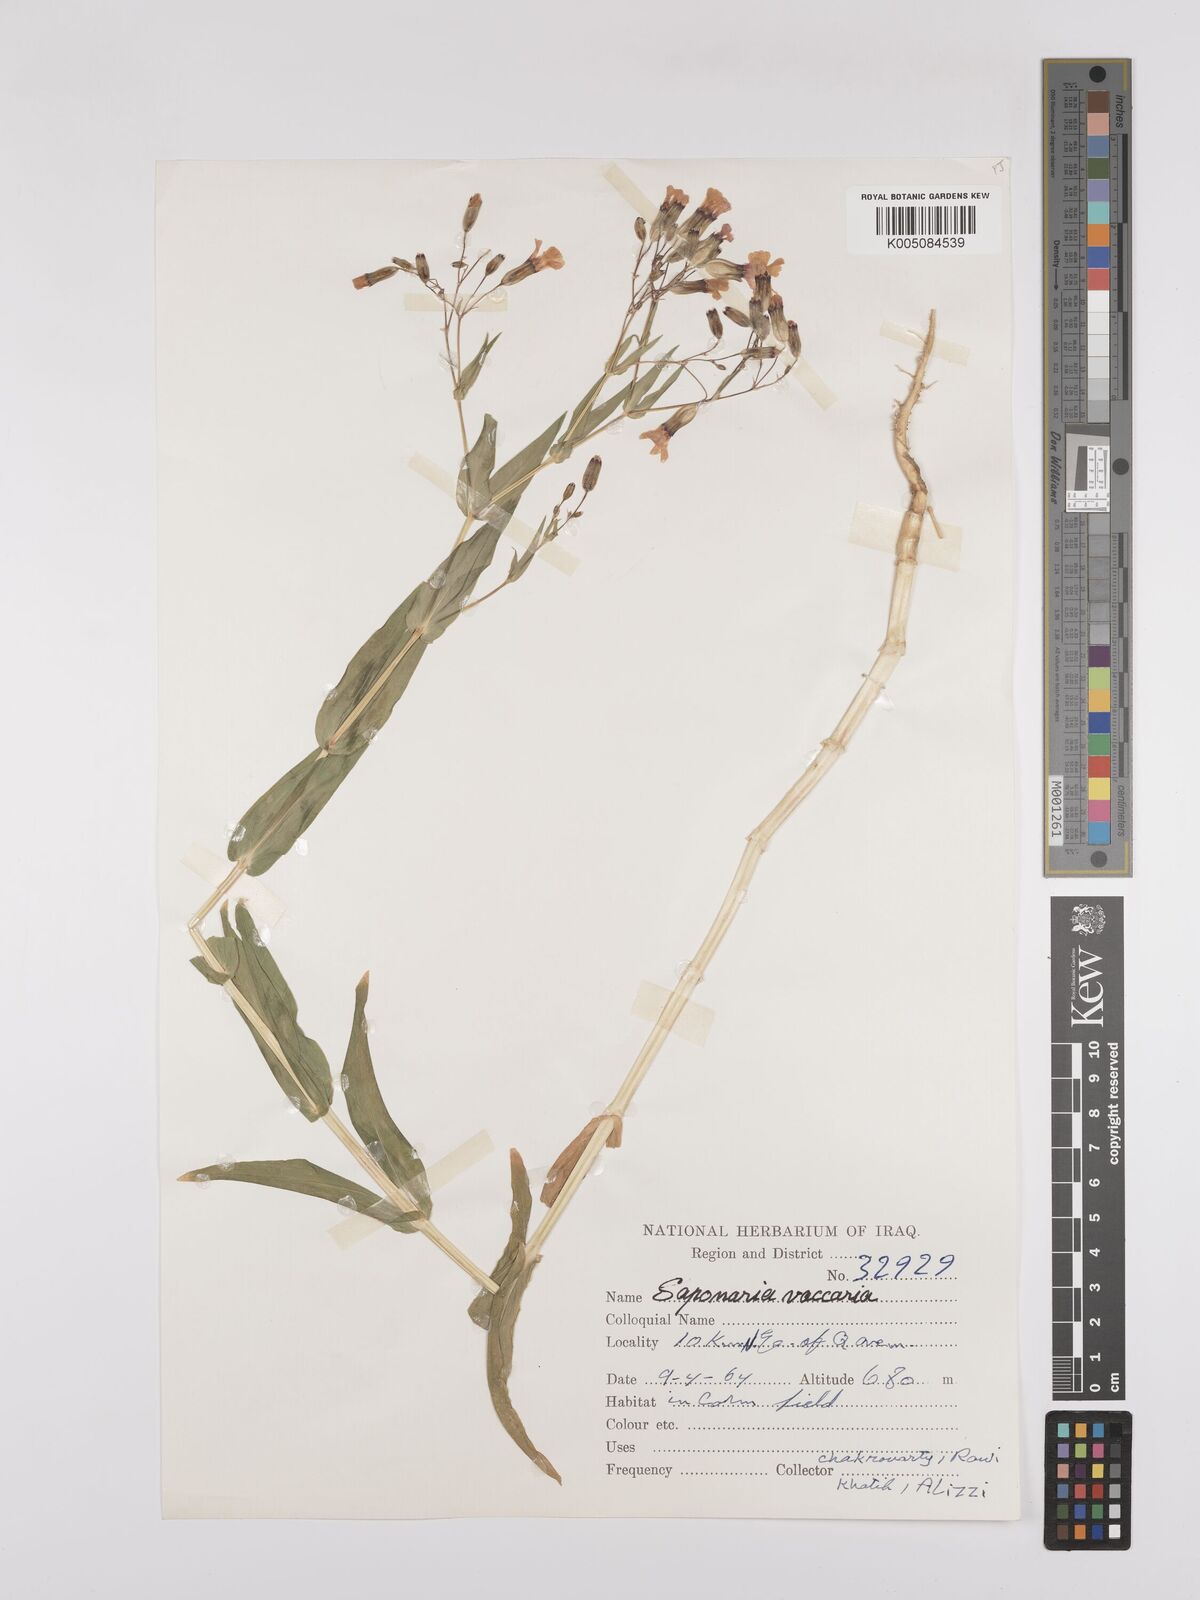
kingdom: Plantae
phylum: Tracheophyta
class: Magnoliopsida
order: Caryophyllales
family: Caryophyllaceae
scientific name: Caryophyllaceae
